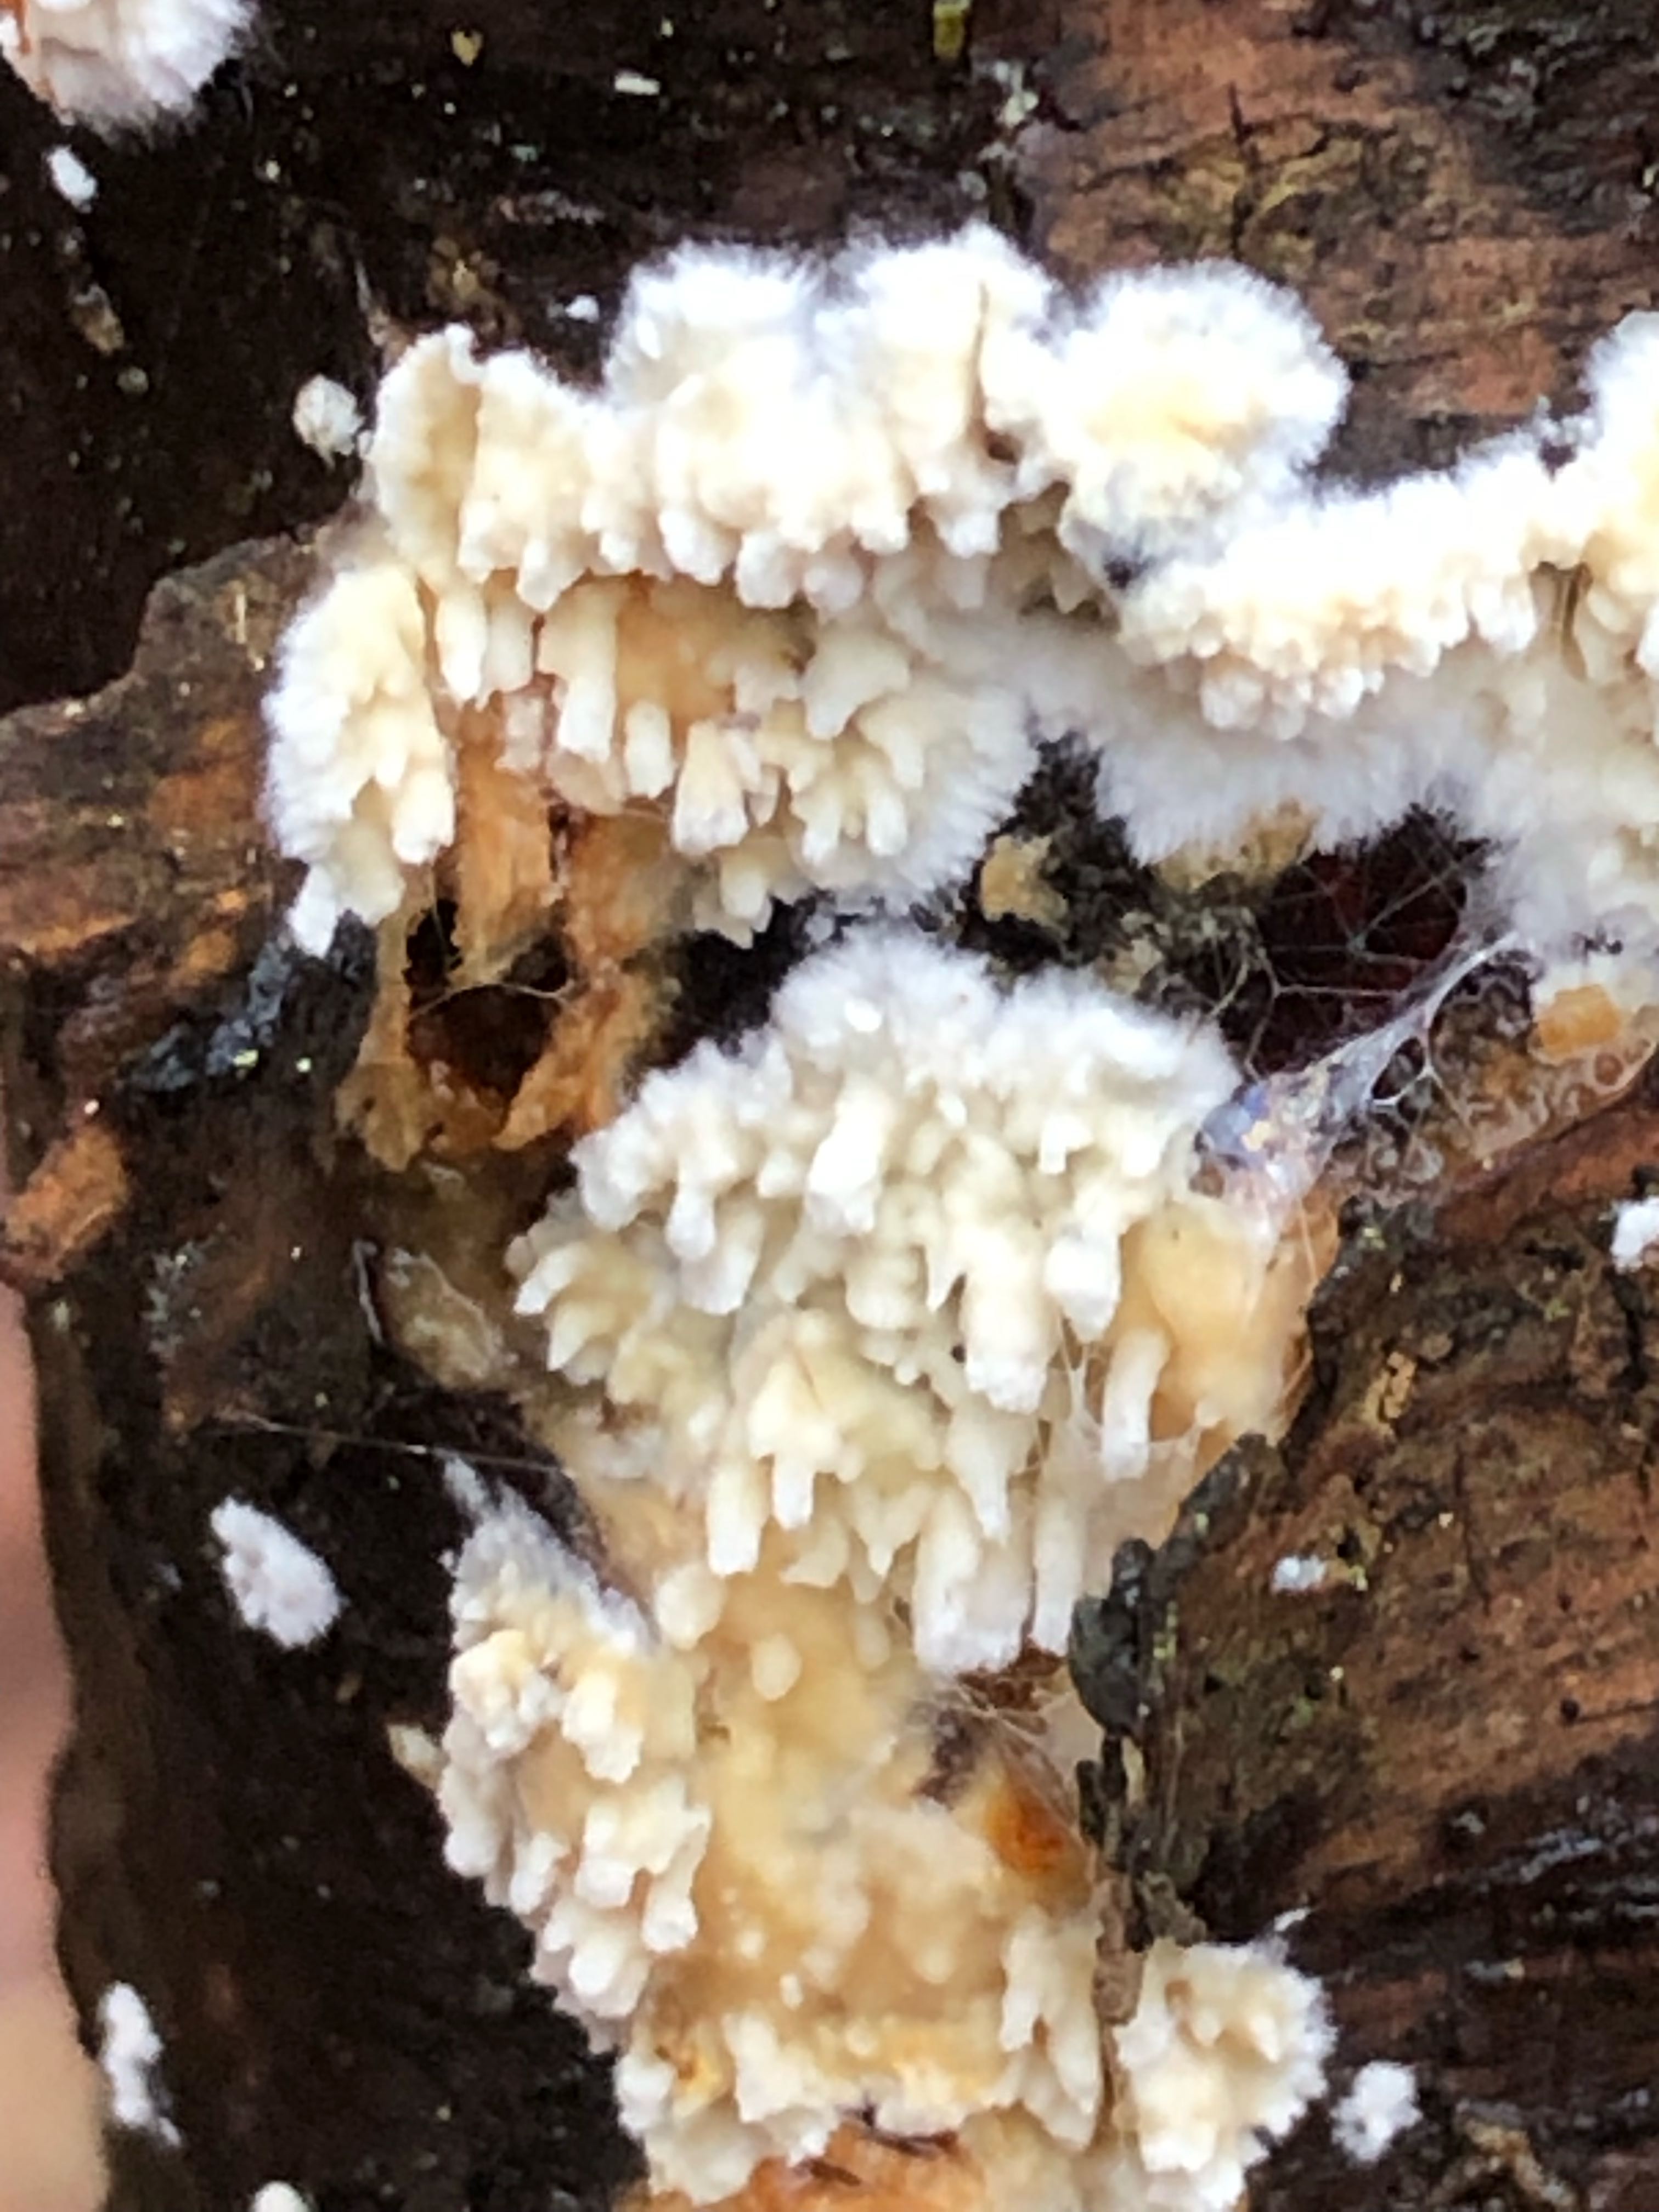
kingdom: Fungi
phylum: Basidiomycota
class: Agaricomycetes
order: Hymenochaetales
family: Schizoporaceae
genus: Xylodon
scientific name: Xylodon radula
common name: grovtandet kalkskind
